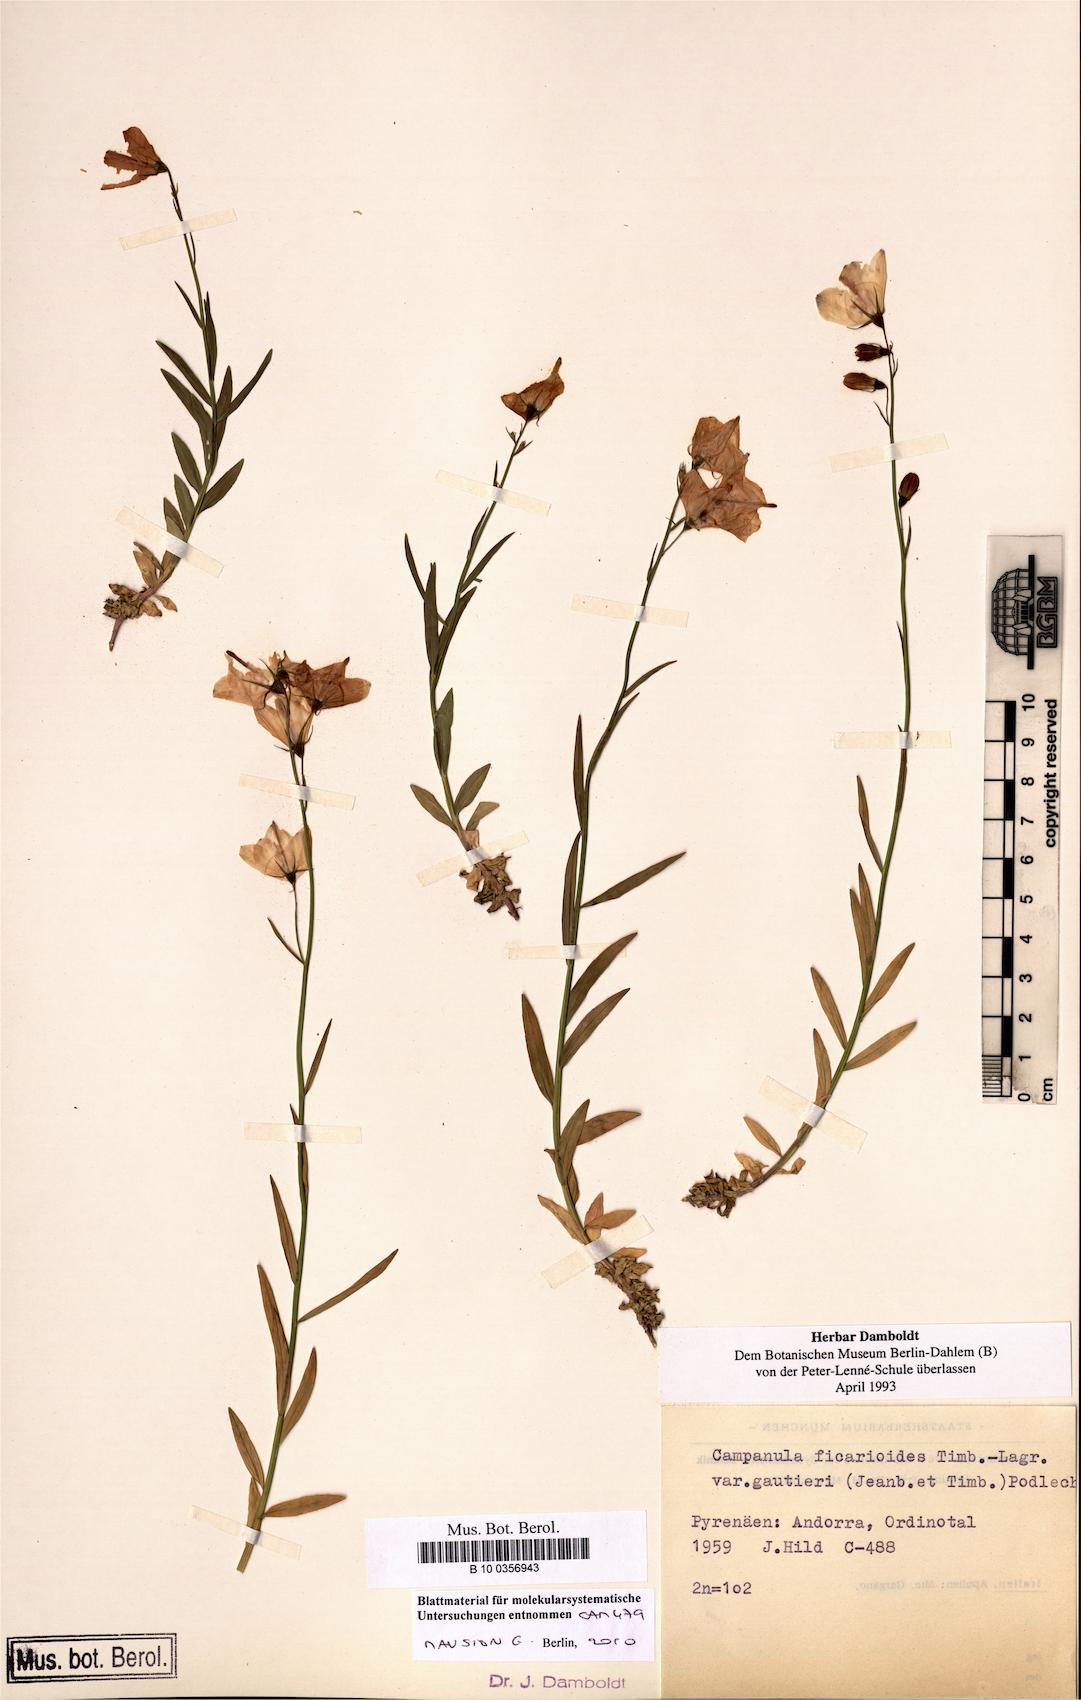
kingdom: Plantae
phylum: Tracheophyta
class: Magnoliopsida
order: Asterales
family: Campanulaceae
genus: Campanula
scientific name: Campanula ficarioides
